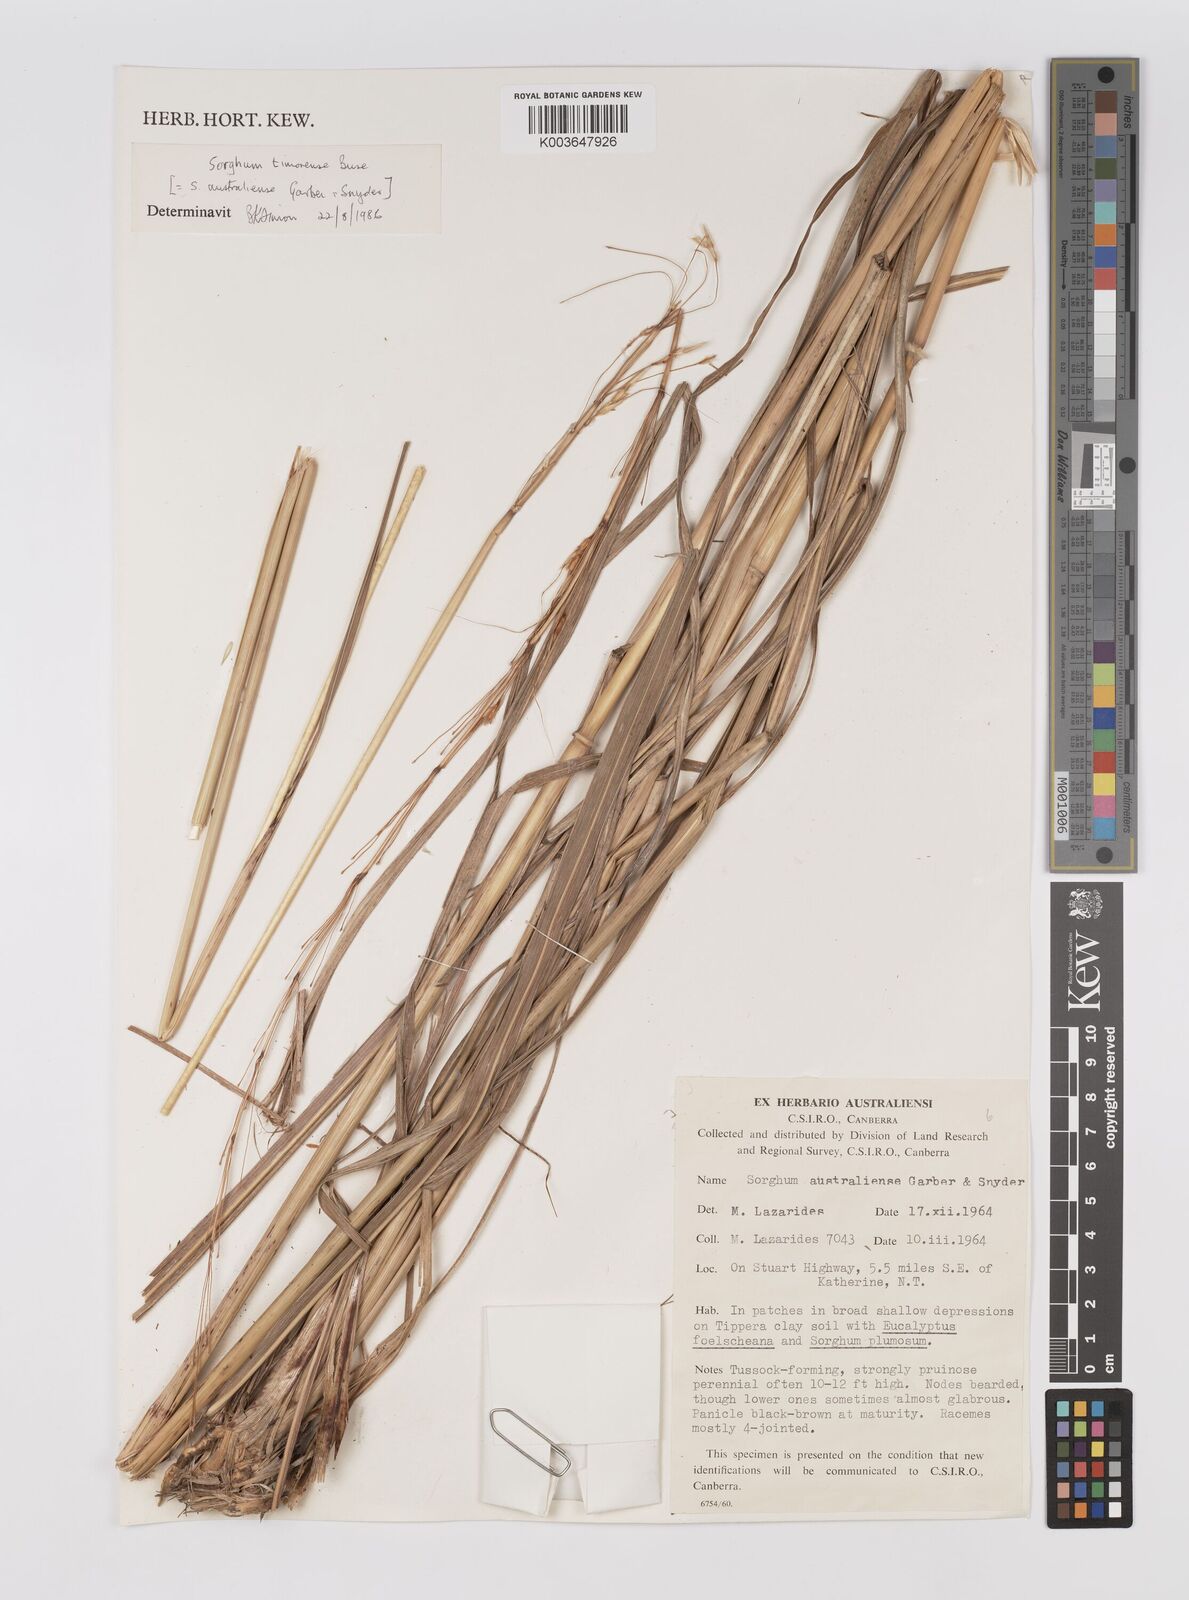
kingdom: Plantae
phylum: Tracheophyta
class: Liliopsida
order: Poales
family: Poaceae
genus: Sarga
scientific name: Sarga timorensis
